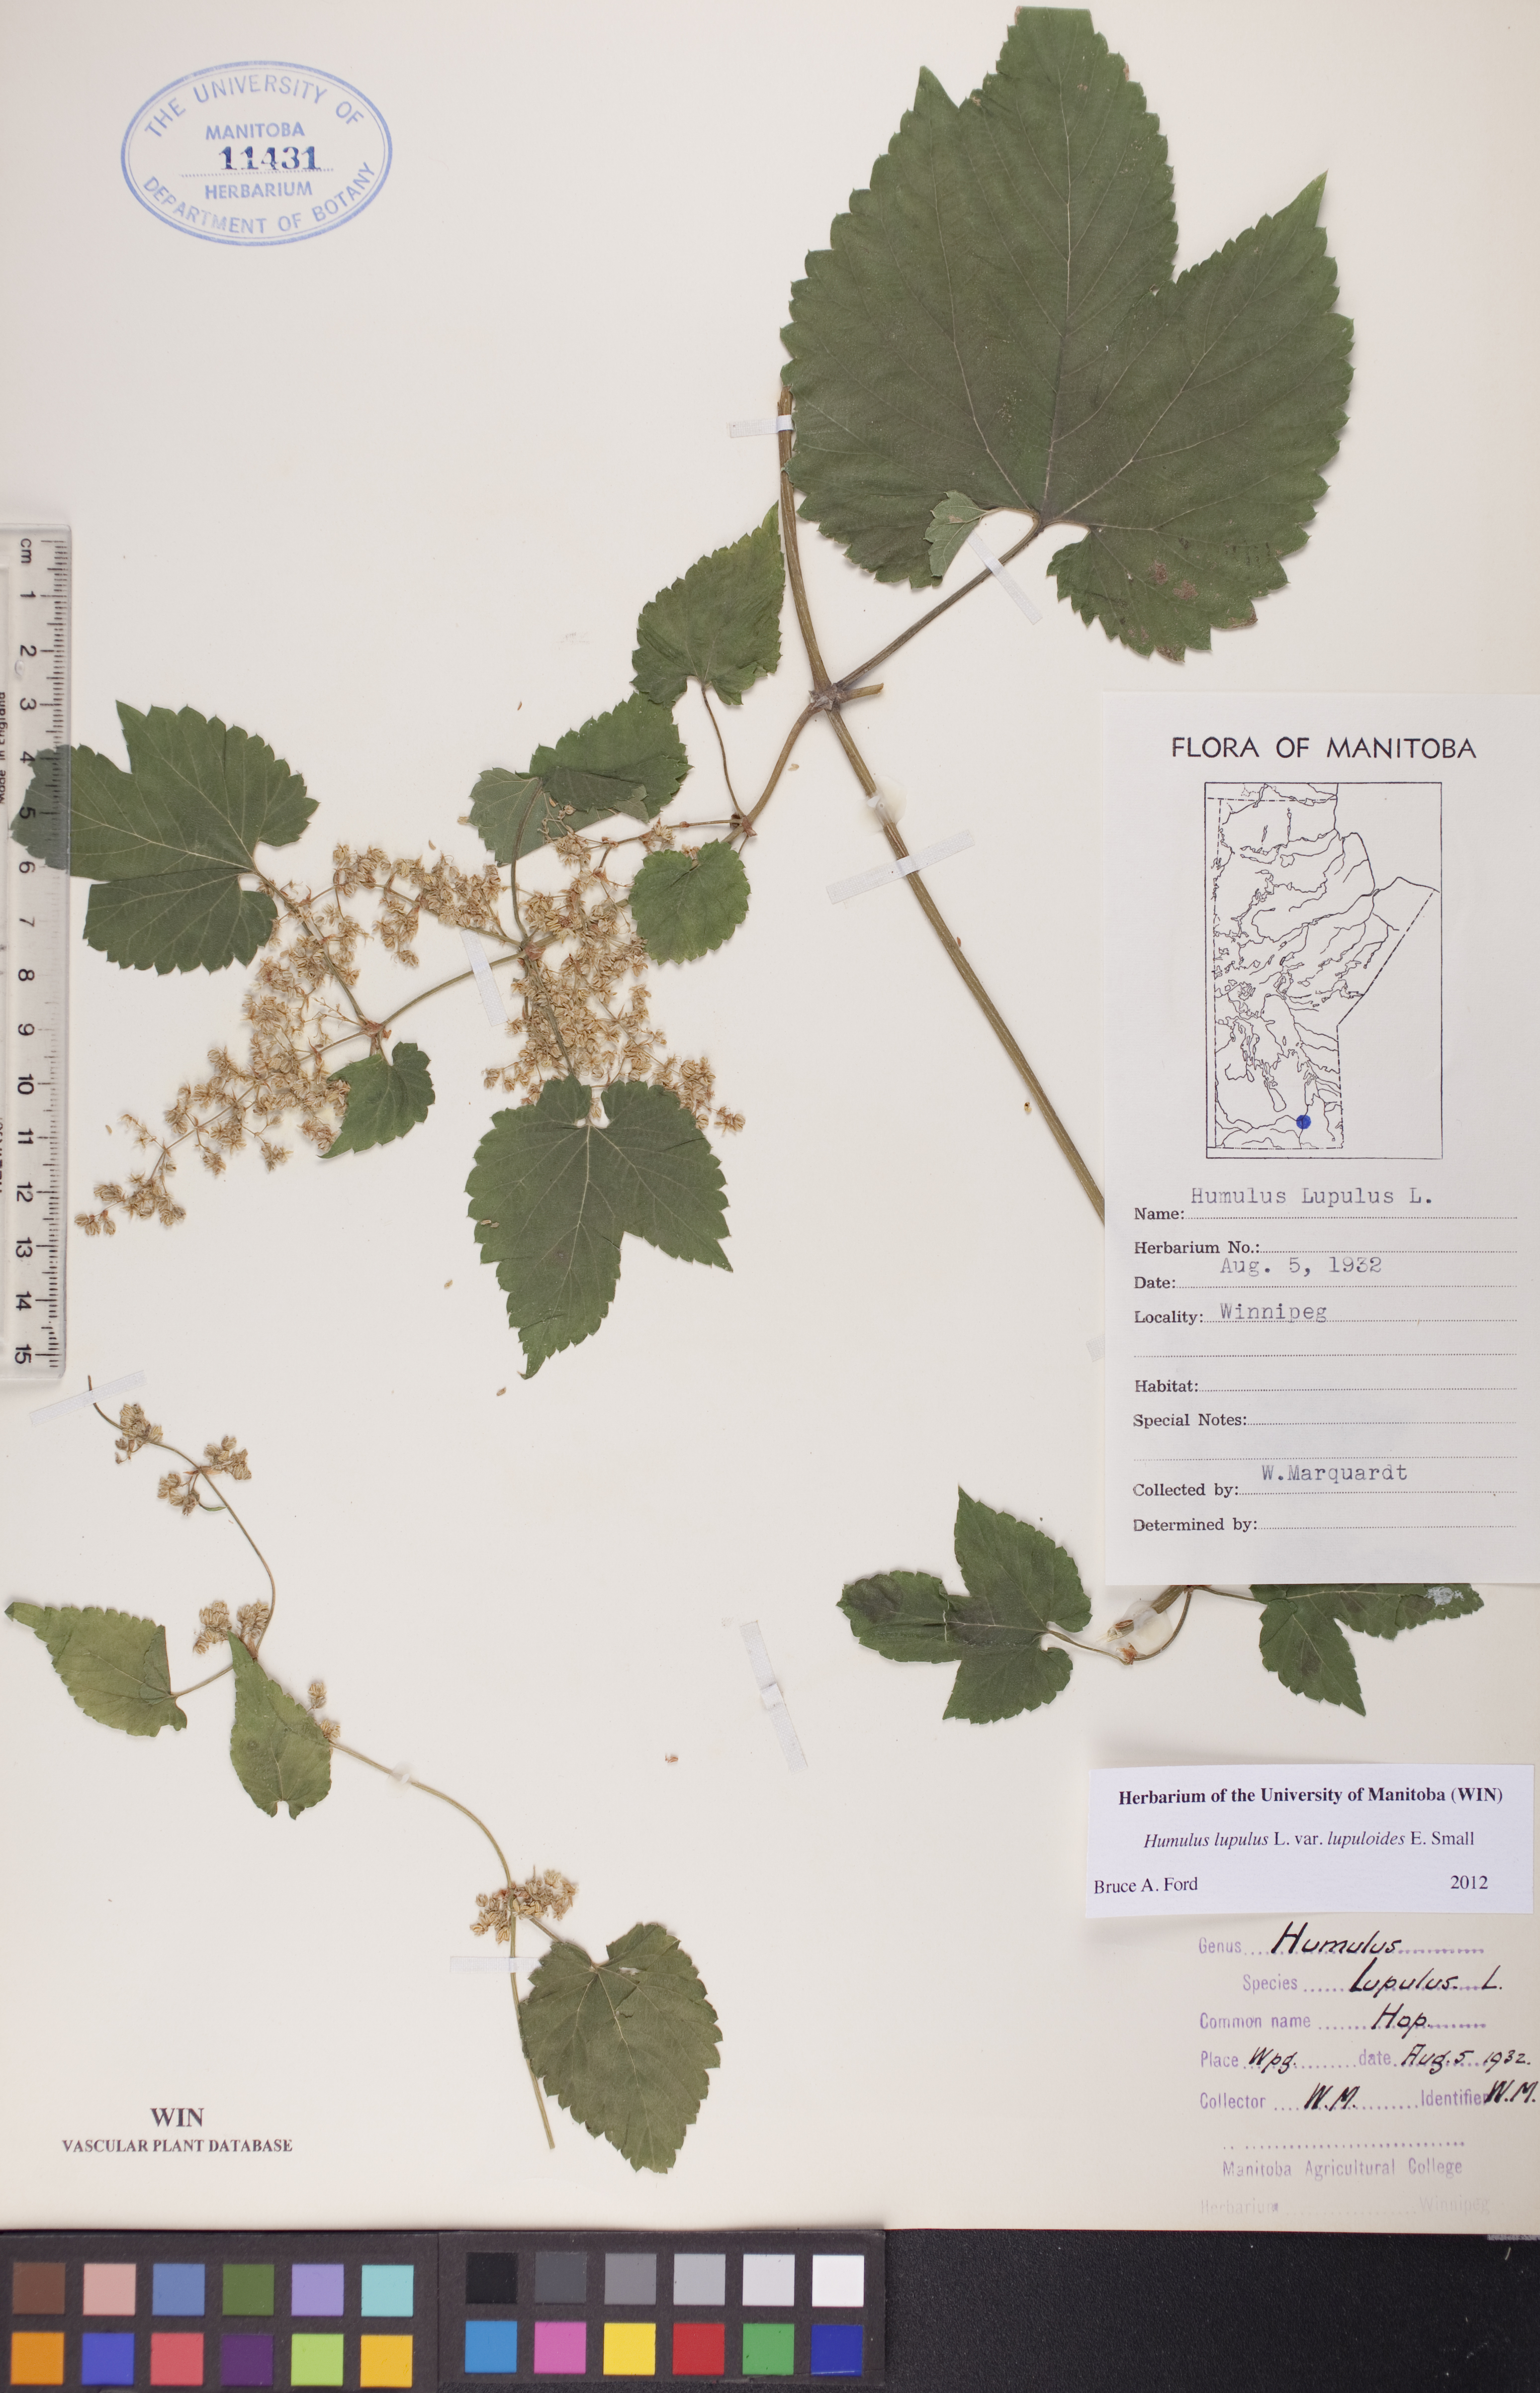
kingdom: Plantae
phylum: Tracheophyta
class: Magnoliopsida
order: Rosales
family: Cannabaceae
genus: Humulus
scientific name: Humulus americanus
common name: American hops
